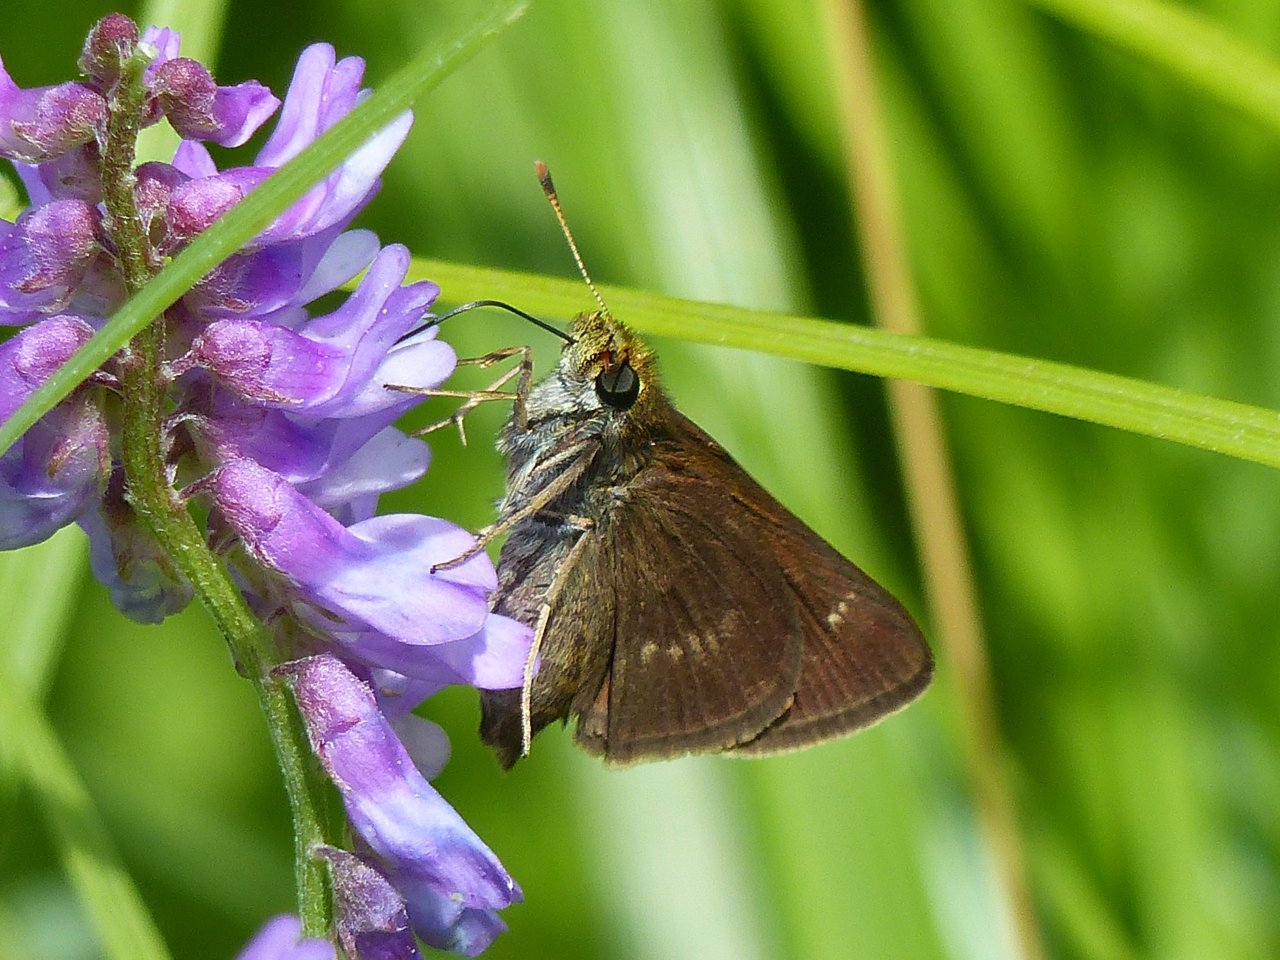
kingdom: Animalia
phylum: Arthropoda
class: Insecta
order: Lepidoptera
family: Hesperiidae
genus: Euphyes
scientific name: Euphyes vestris
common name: Dun Skipper
